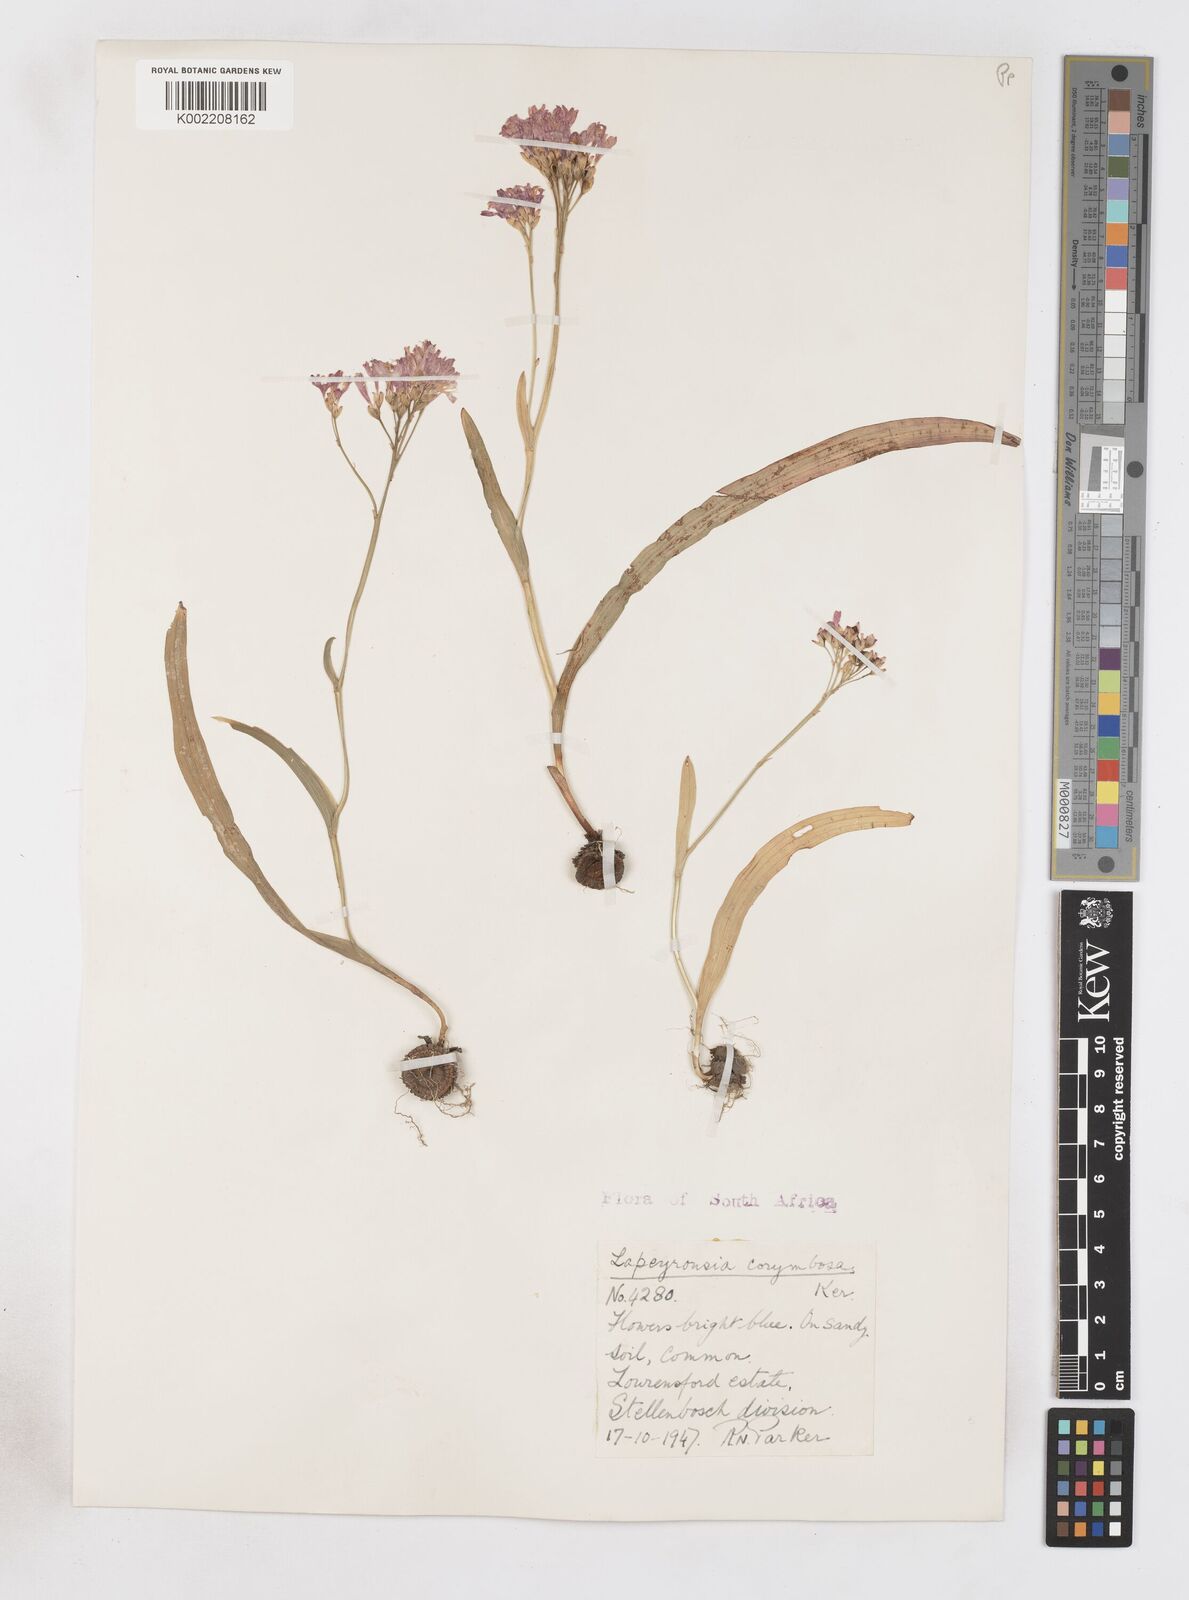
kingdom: Plantae
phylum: Tracheophyta
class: Liliopsida
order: Asparagales
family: Iridaceae
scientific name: Iridaceae
